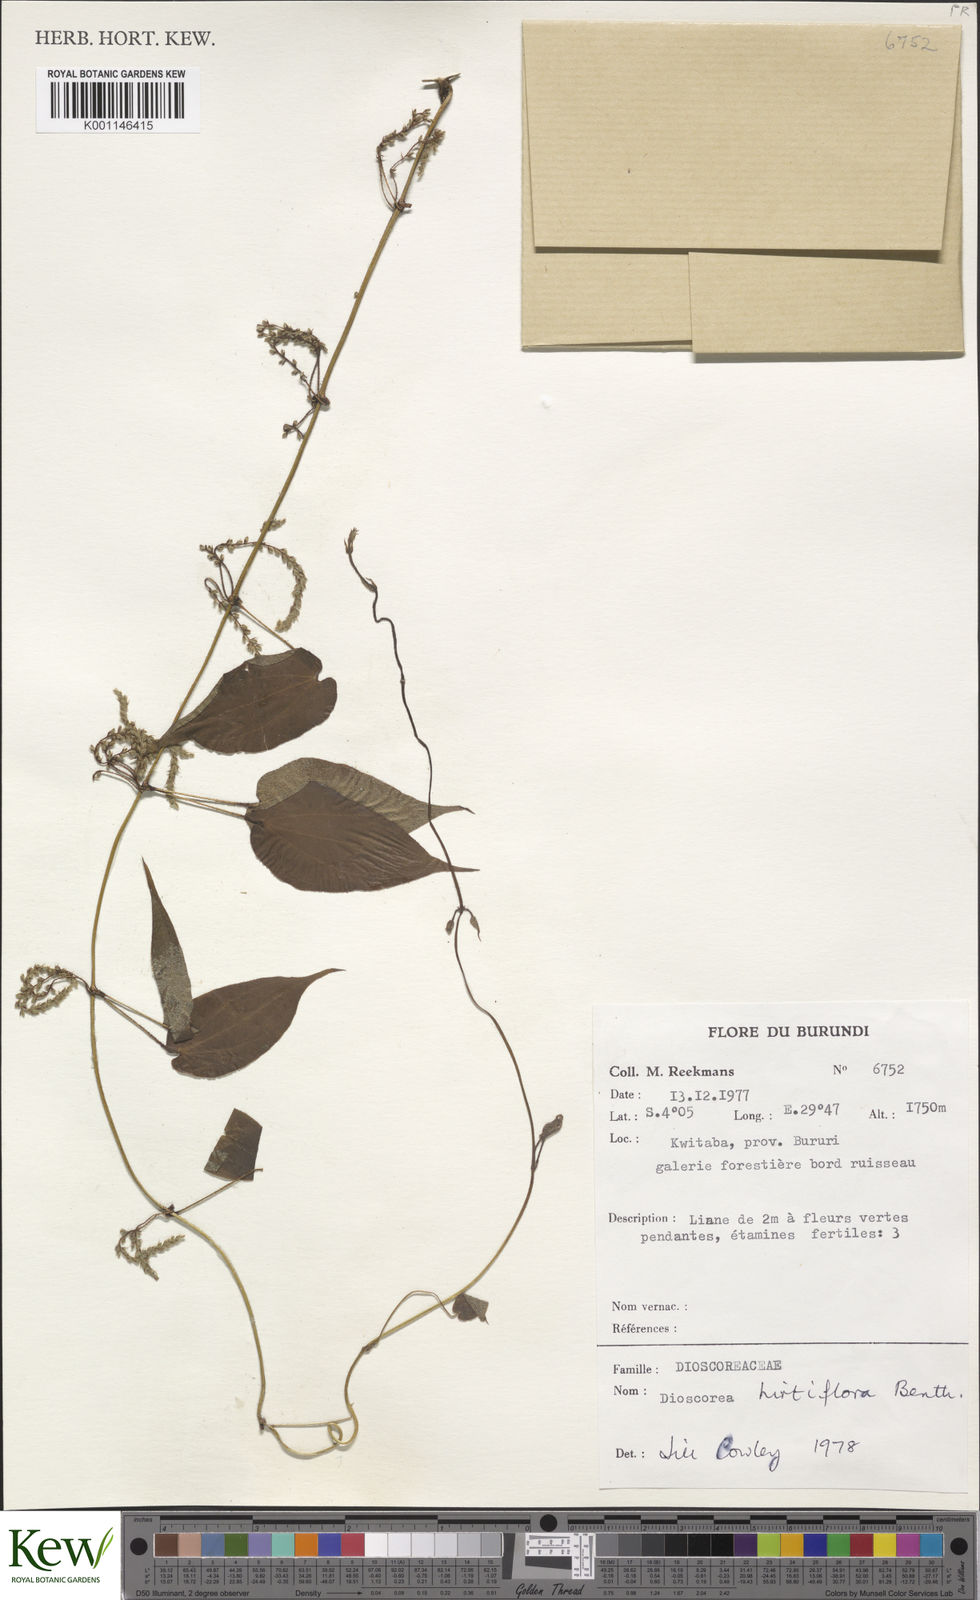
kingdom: Plantae
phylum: Tracheophyta
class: Liliopsida
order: Dioscoreales
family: Dioscoreaceae
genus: Dioscorea
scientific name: Dioscorea hirtiflora
